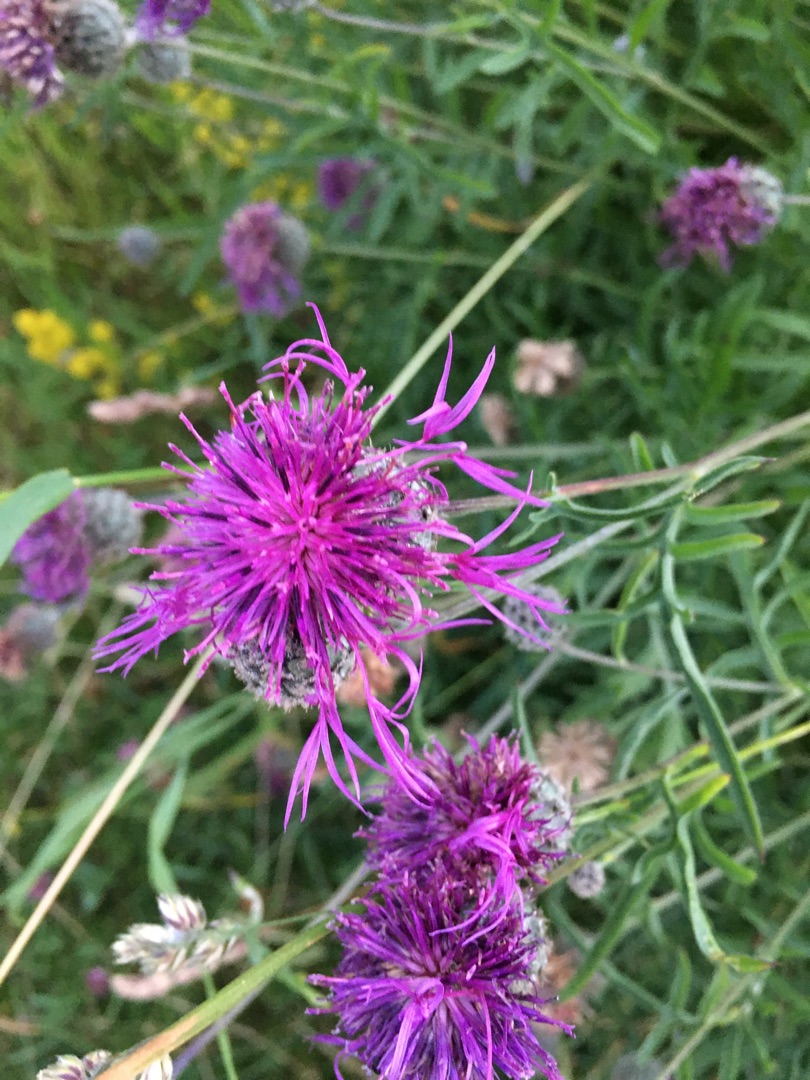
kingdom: Plantae
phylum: Tracheophyta
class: Magnoliopsida
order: Asterales
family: Asteraceae
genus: Centaurea
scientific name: Centaurea scabiosa
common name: Stor knopurt
